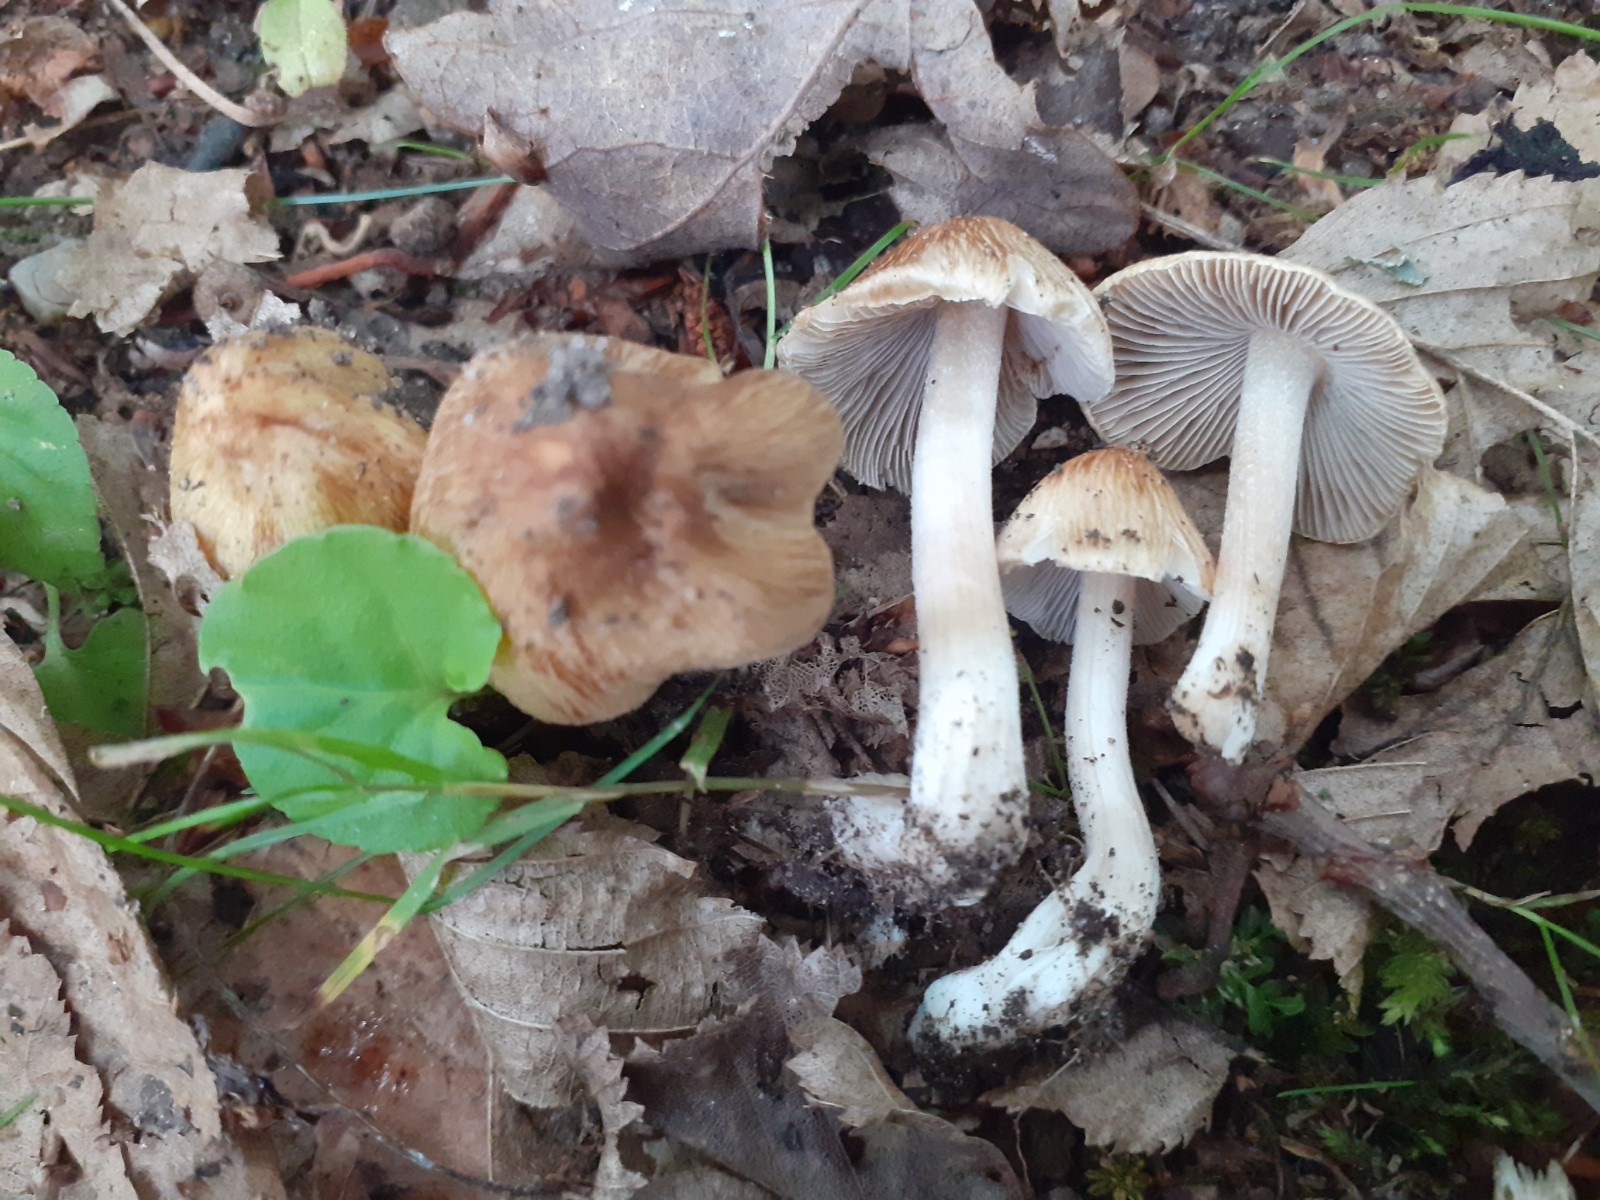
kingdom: Fungi
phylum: Basidiomycota
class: Agaricomycetes
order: Agaricales
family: Inocybaceae
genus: Pseudosperma
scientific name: Pseudosperma
